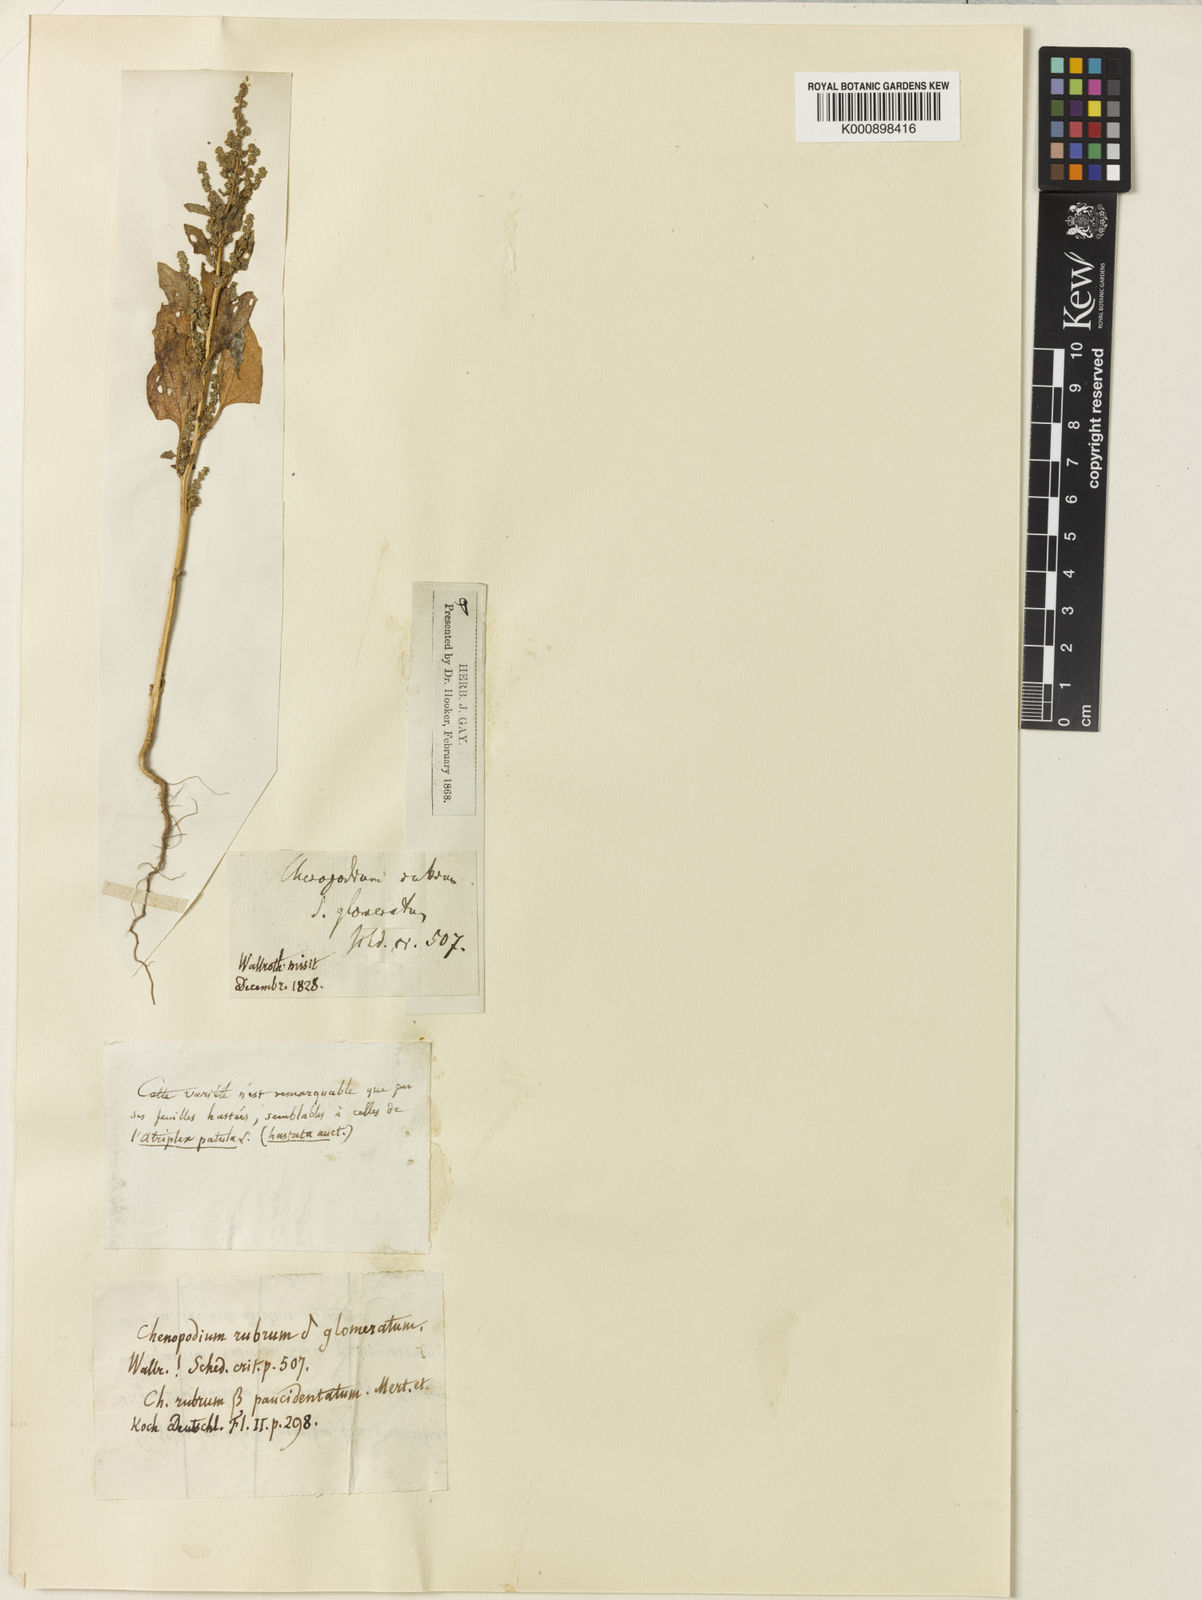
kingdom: Plantae
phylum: Tracheophyta
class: Magnoliopsida
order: Caryophyllales
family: Amaranthaceae
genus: Chenopodium
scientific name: Chenopodium
